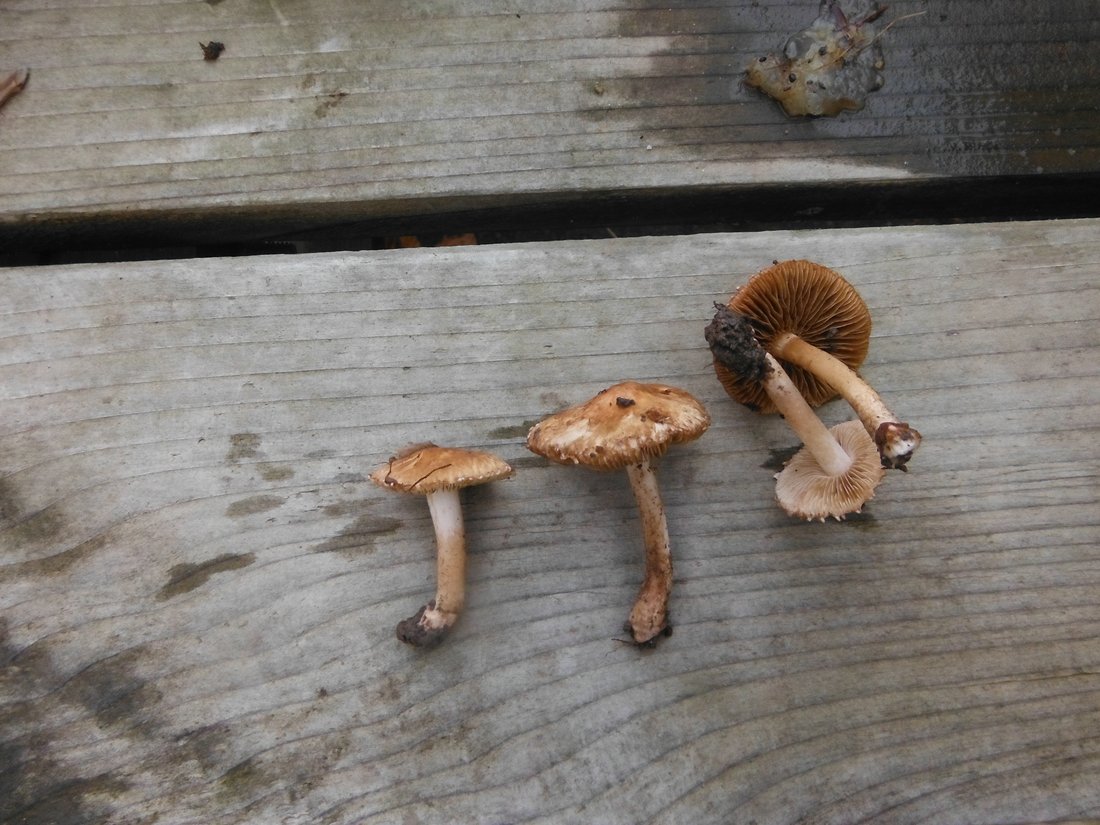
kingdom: Fungi
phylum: Basidiomycota
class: Agaricomycetes
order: Agaricales
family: Inocybaceae
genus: Inocybe
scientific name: Inocybe fraudans
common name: pæreduftende trævlhat
